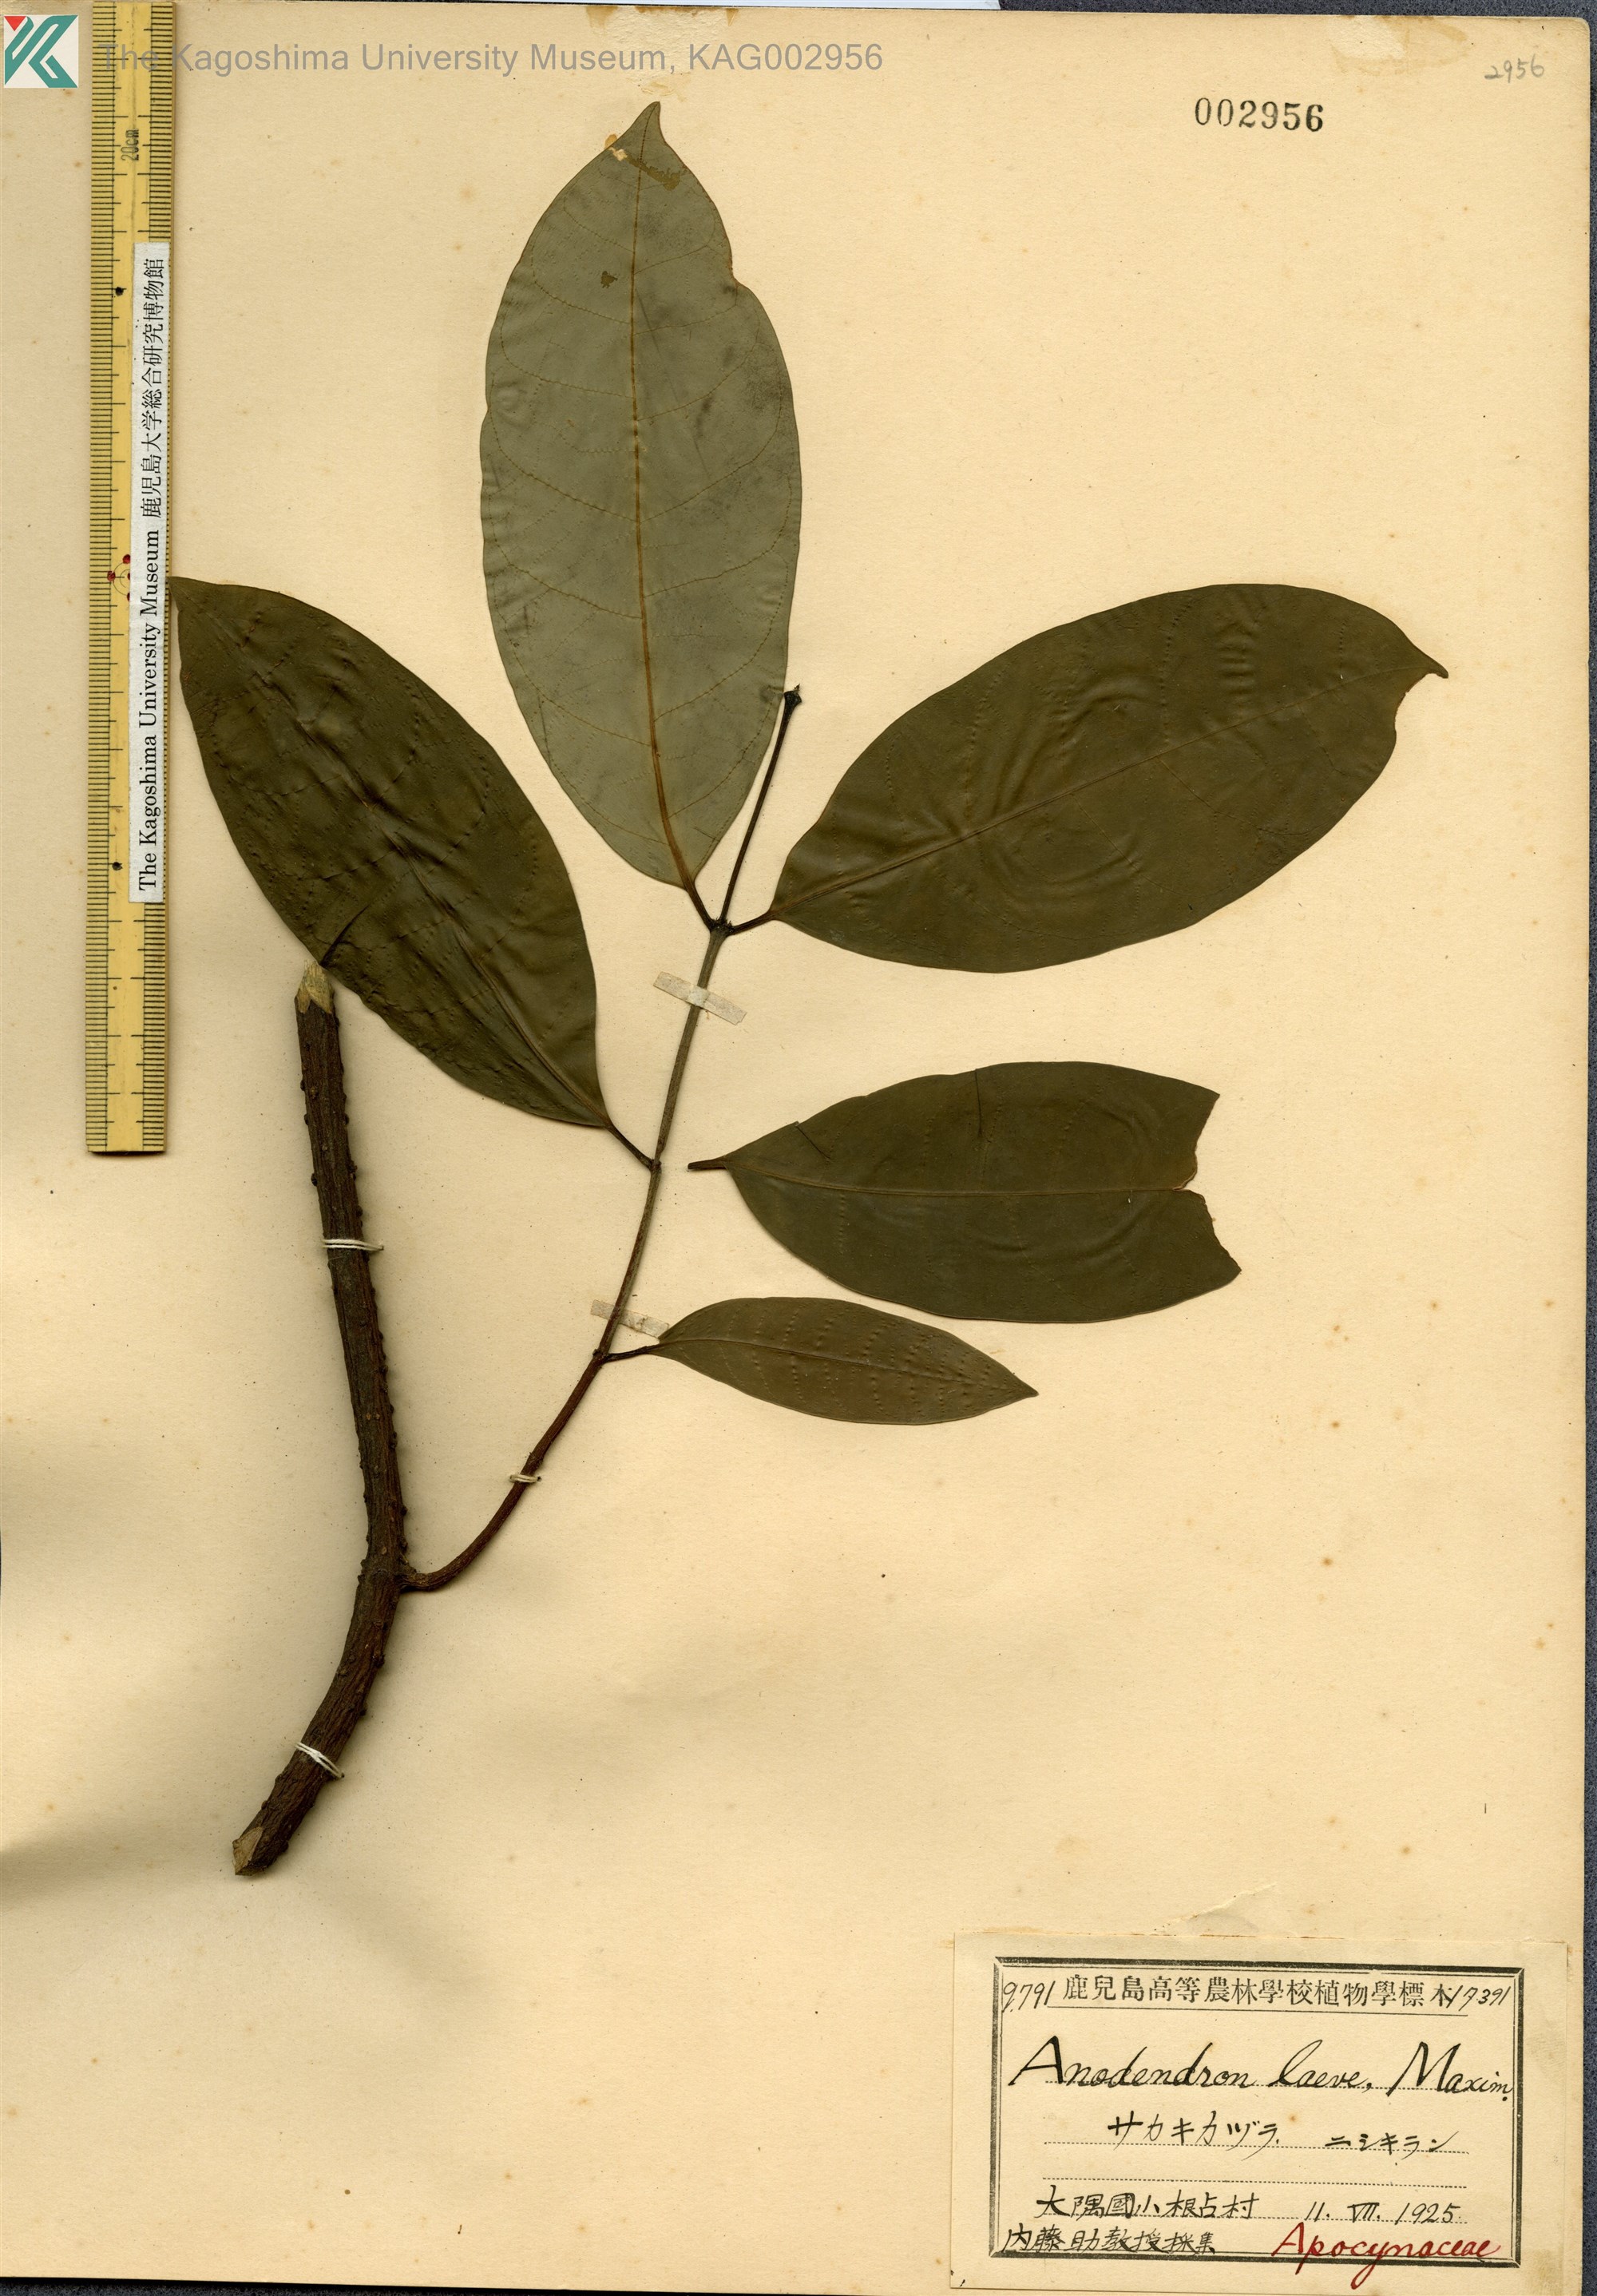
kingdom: Plantae
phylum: Tracheophyta
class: Magnoliopsida
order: Gentianales
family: Apocynaceae
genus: Anodendron
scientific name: Anodendron affine
